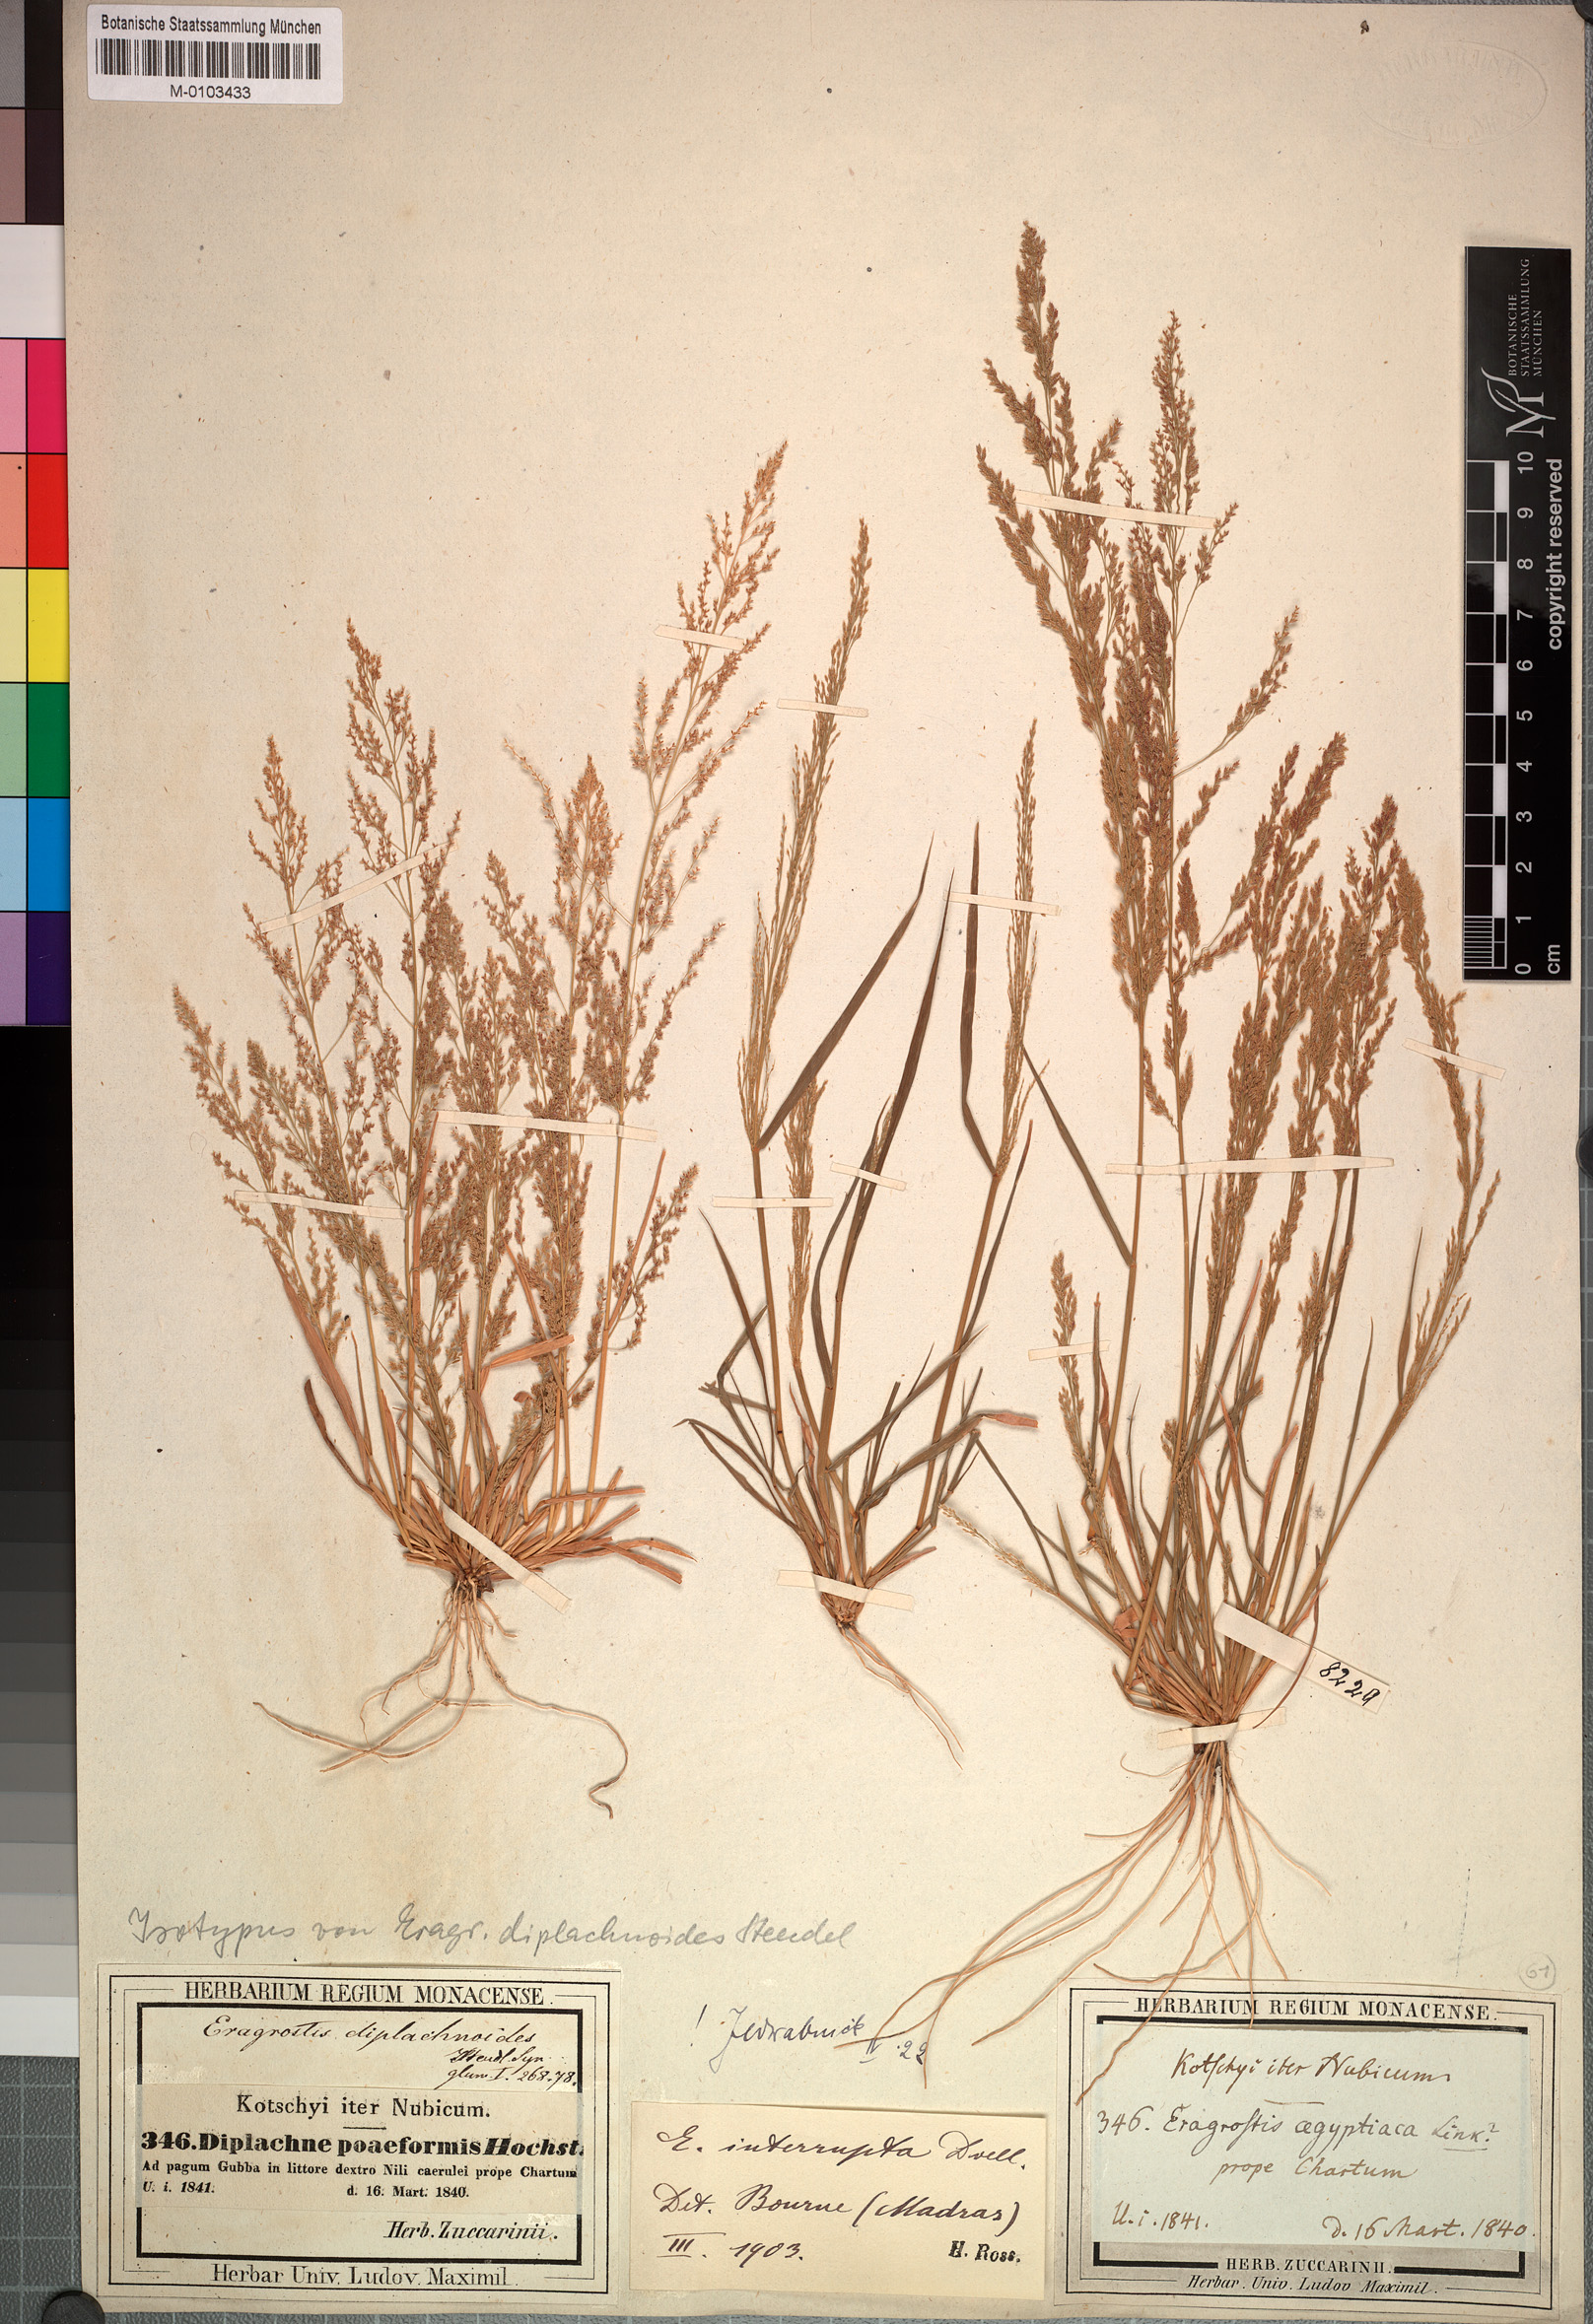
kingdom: Plantae
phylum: Tracheophyta
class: Liliopsida
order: Poales
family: Poaceae
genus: Eragrostis
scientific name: Eragrostis japonica
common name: Pond lovegrass
